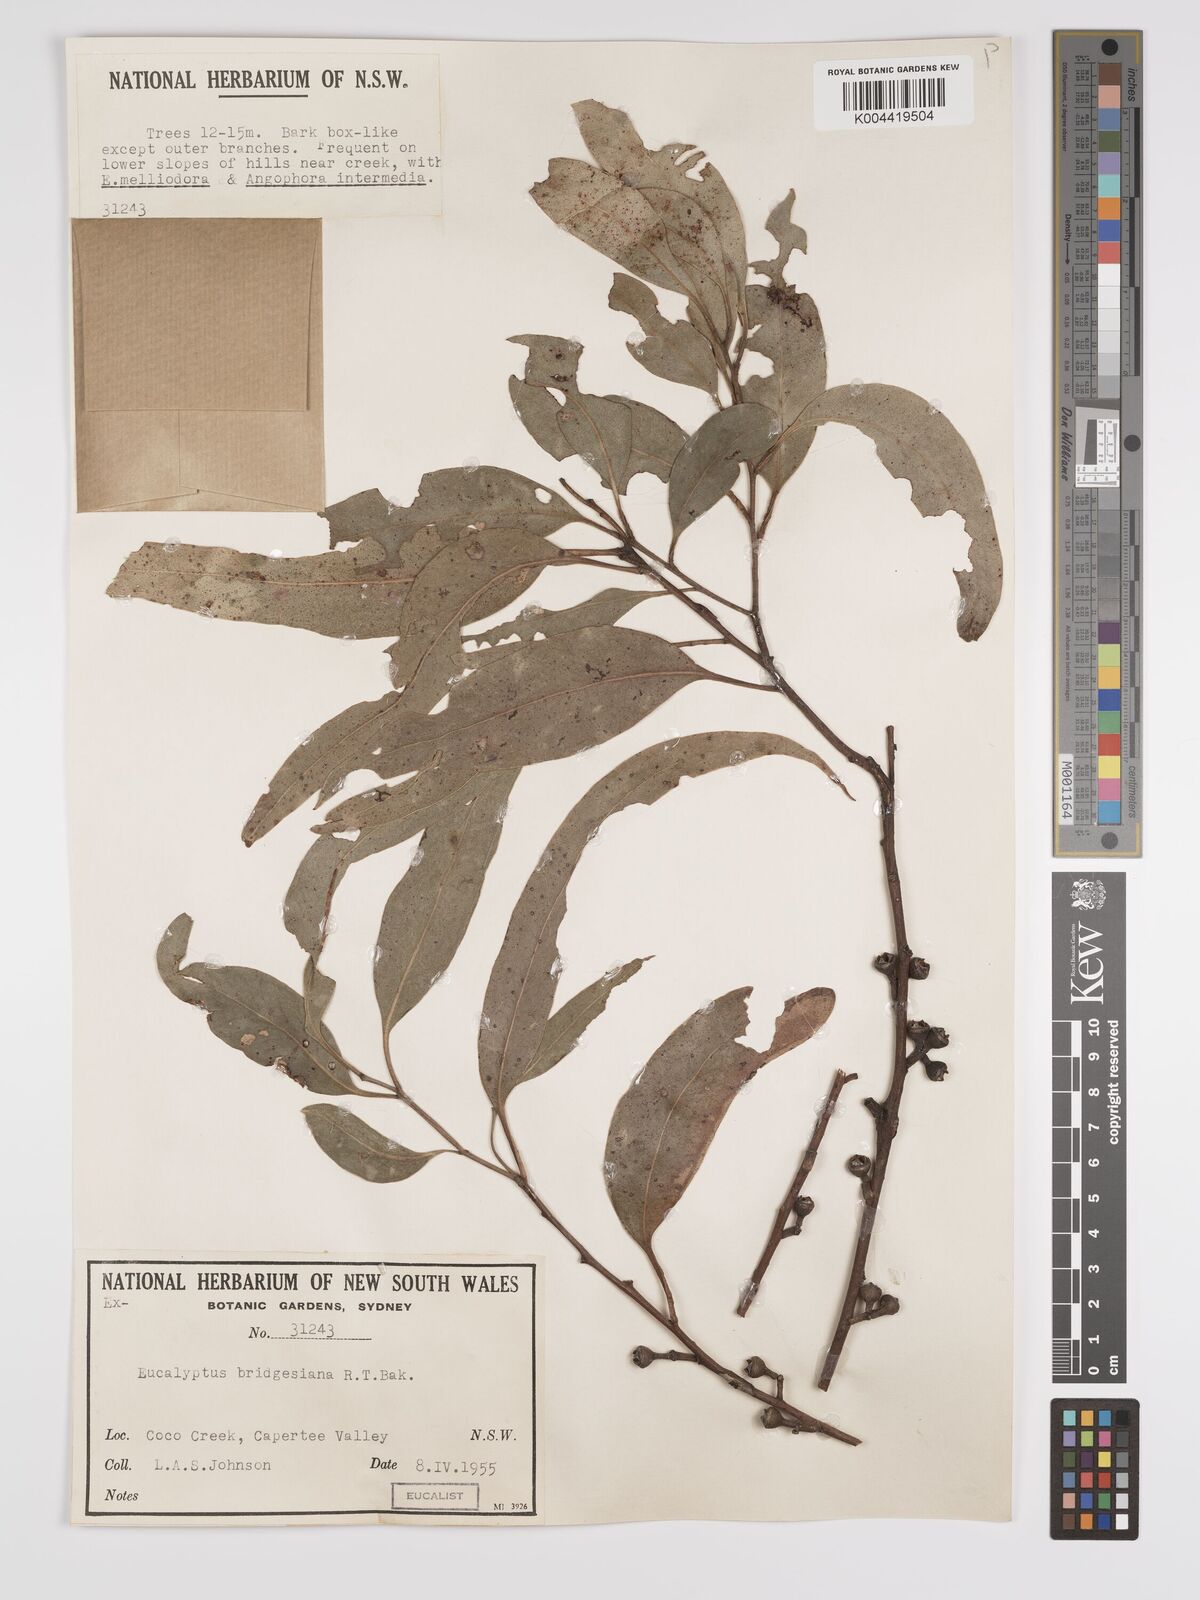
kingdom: Plantae
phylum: Tracheophyta
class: Magnoliopsida
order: Myrtales
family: Myrtaceae
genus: Eucalyptus
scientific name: Eucalyptus bridgesiana
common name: Applebox
